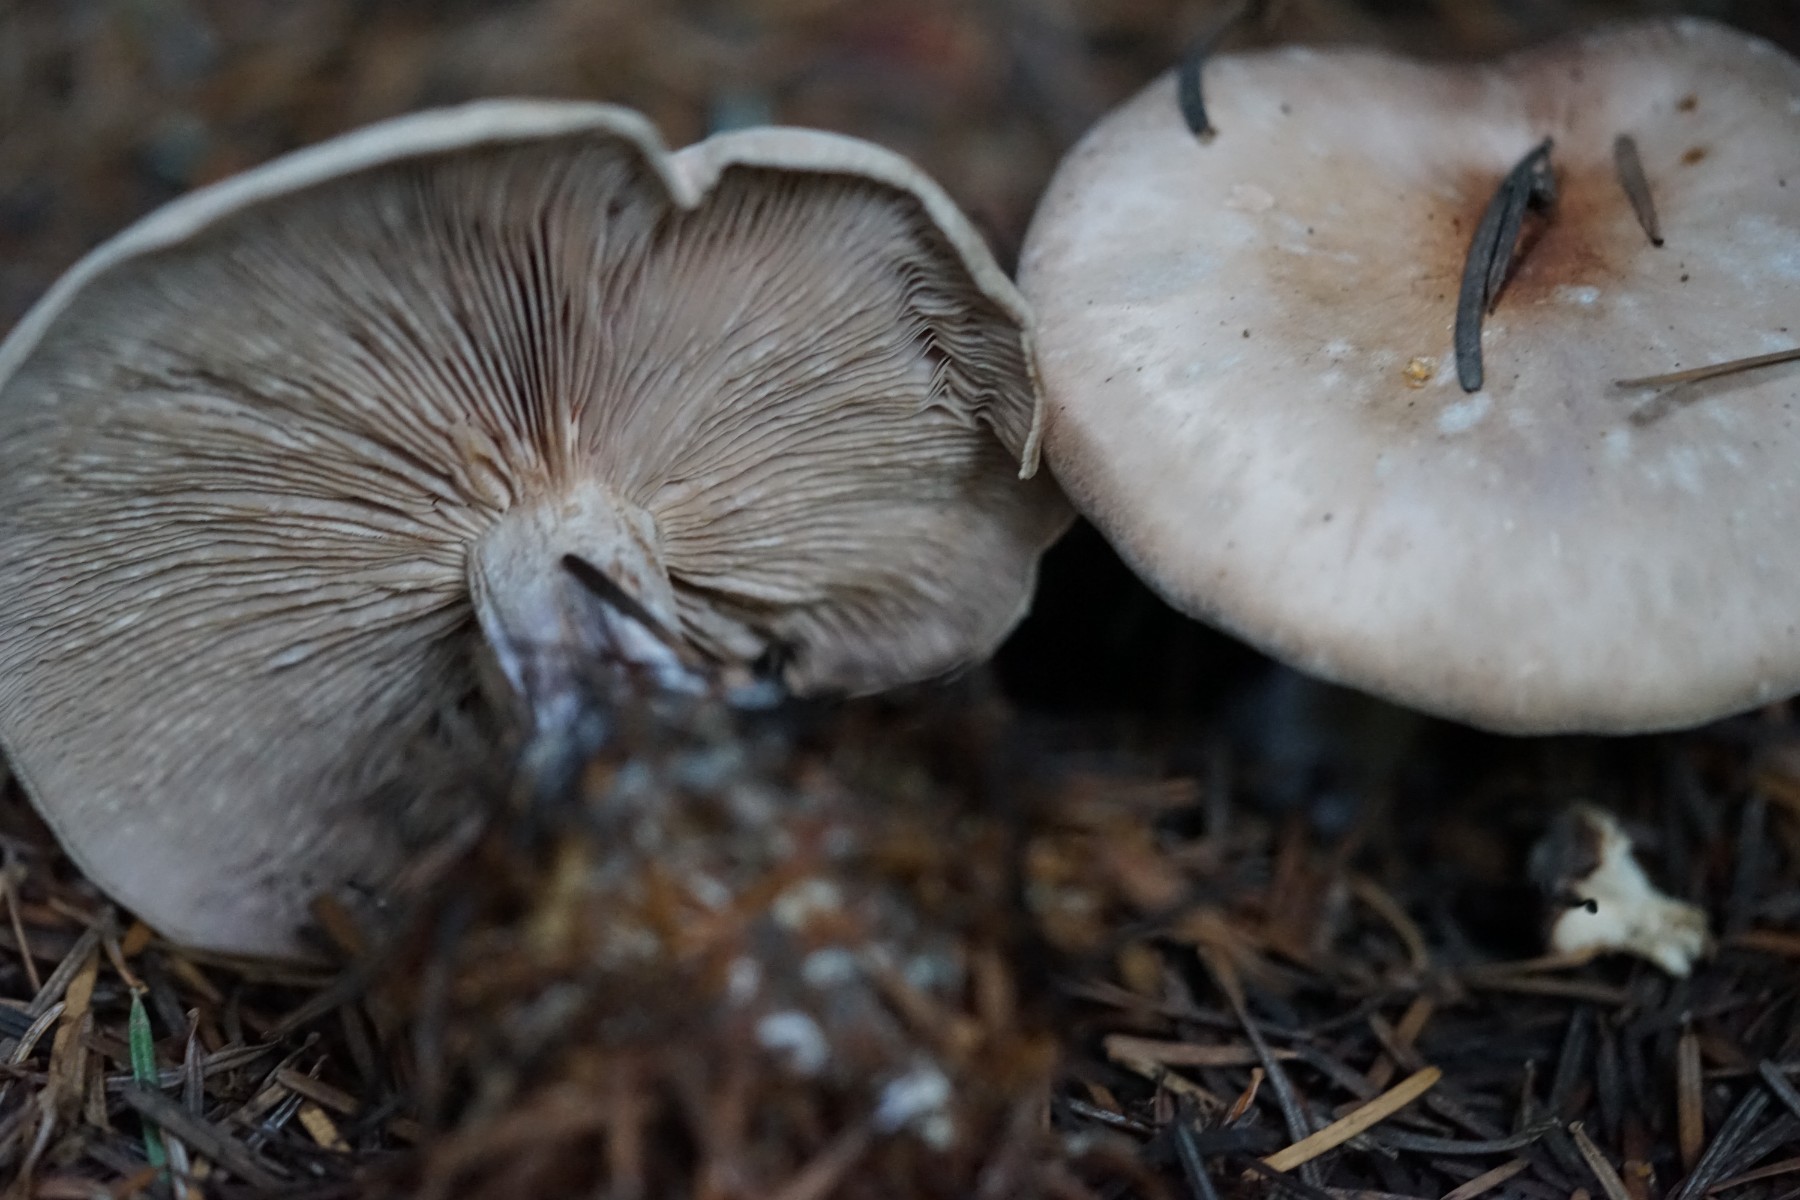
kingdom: Fungi
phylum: Basidiomycota
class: Agaricomycetes
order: Agaricales
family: Tricholomataceae
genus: Lepista
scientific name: Lepista nuda
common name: violet hekseringshat
